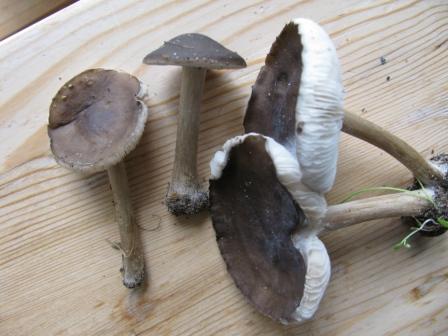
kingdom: Fungi
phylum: Basidiomycota
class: Agaricomycetes
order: Agaricales
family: Tricholomataceae
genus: Melanoleuca
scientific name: Melanoleuca polioleuca
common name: almindelig munkehat
